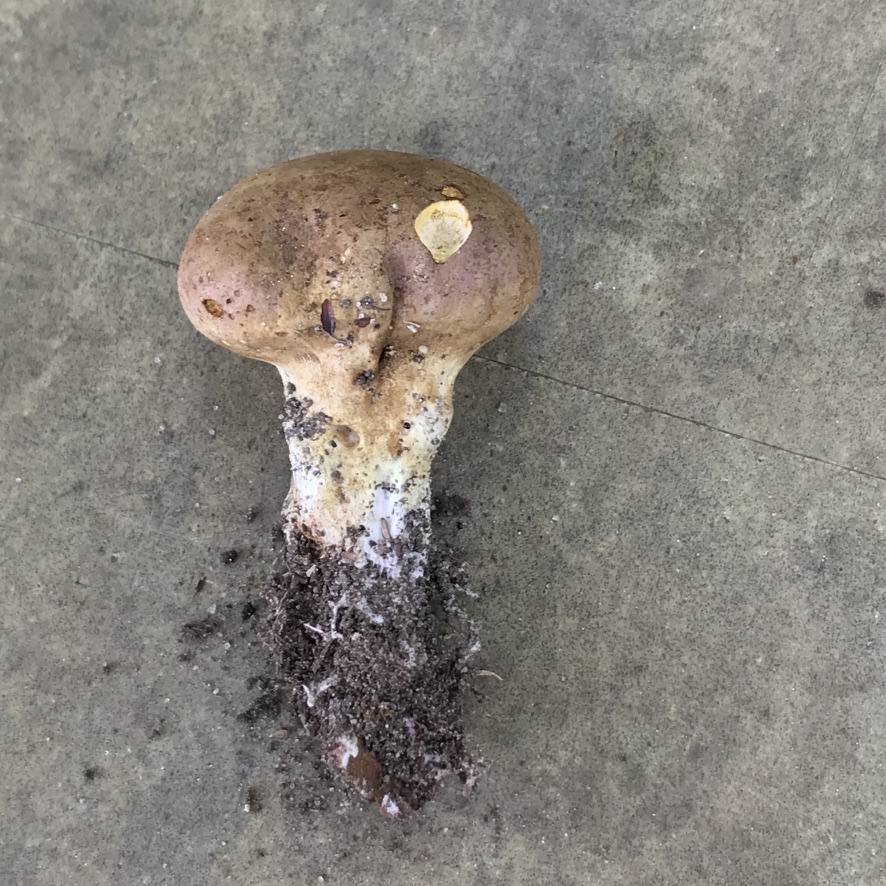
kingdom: Fungi
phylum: Basidiomycota
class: Agaricomycetes
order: Boletales
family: Sclerodermataceae
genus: Scleroderma
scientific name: Scleroderma
